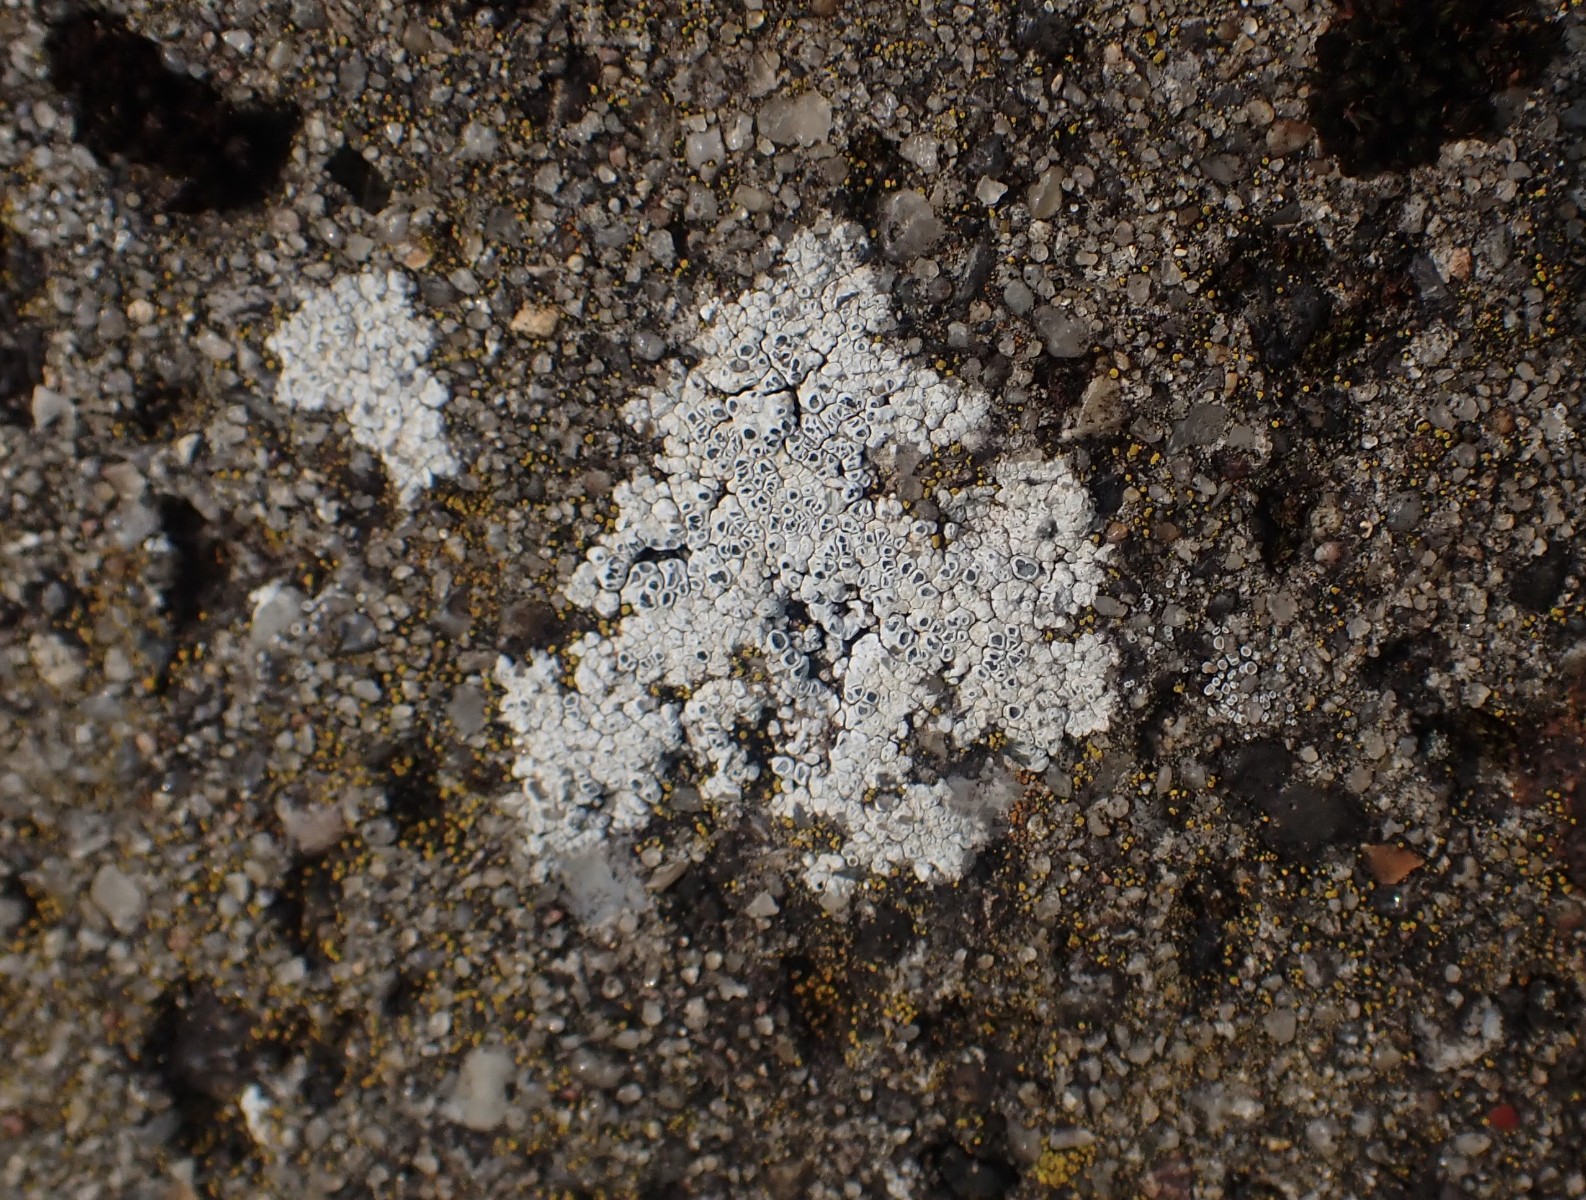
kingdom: Fungi
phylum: Ascomycota
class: Lecanoromycetes
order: Pertusariales
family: Megasporaceae
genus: Circinaria
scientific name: Circinaria contorta
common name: indviklet hulskivelav
